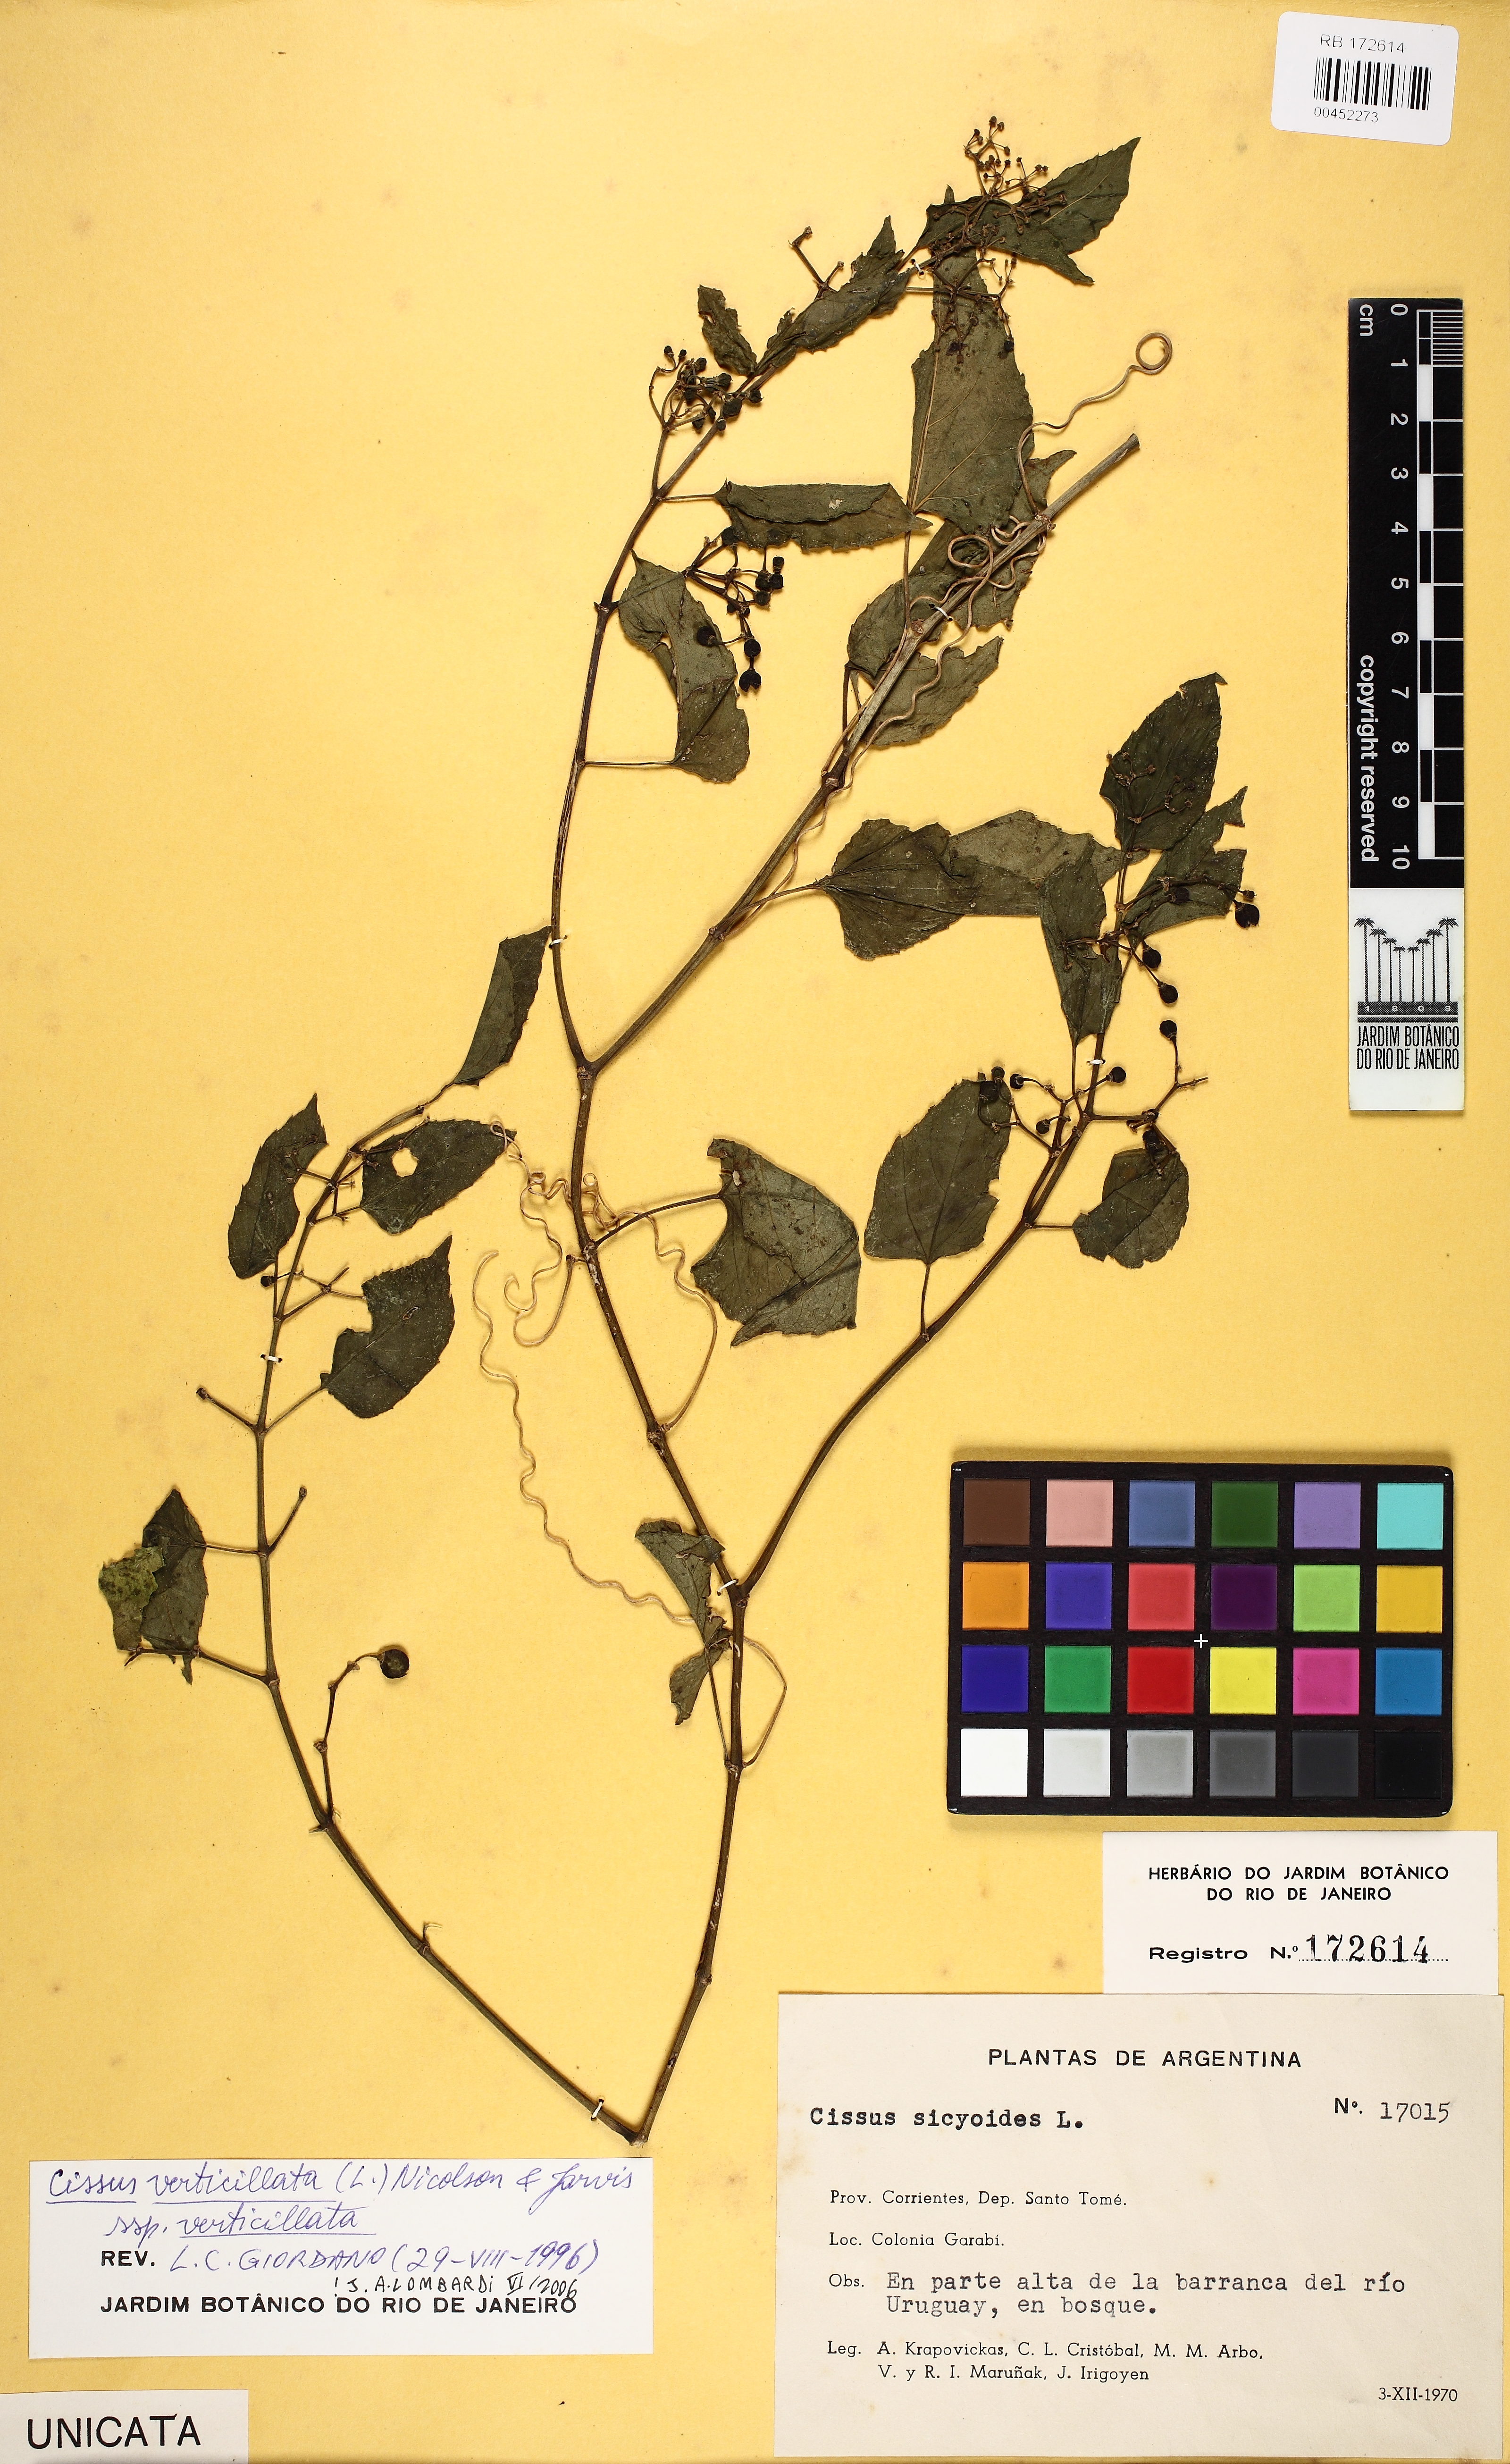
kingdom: Plantae
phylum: Tracheophyta
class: Magnoliopsida
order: Vitales
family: Vitaceae
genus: Cissus
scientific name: Cissus verticillata
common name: Princess vine
